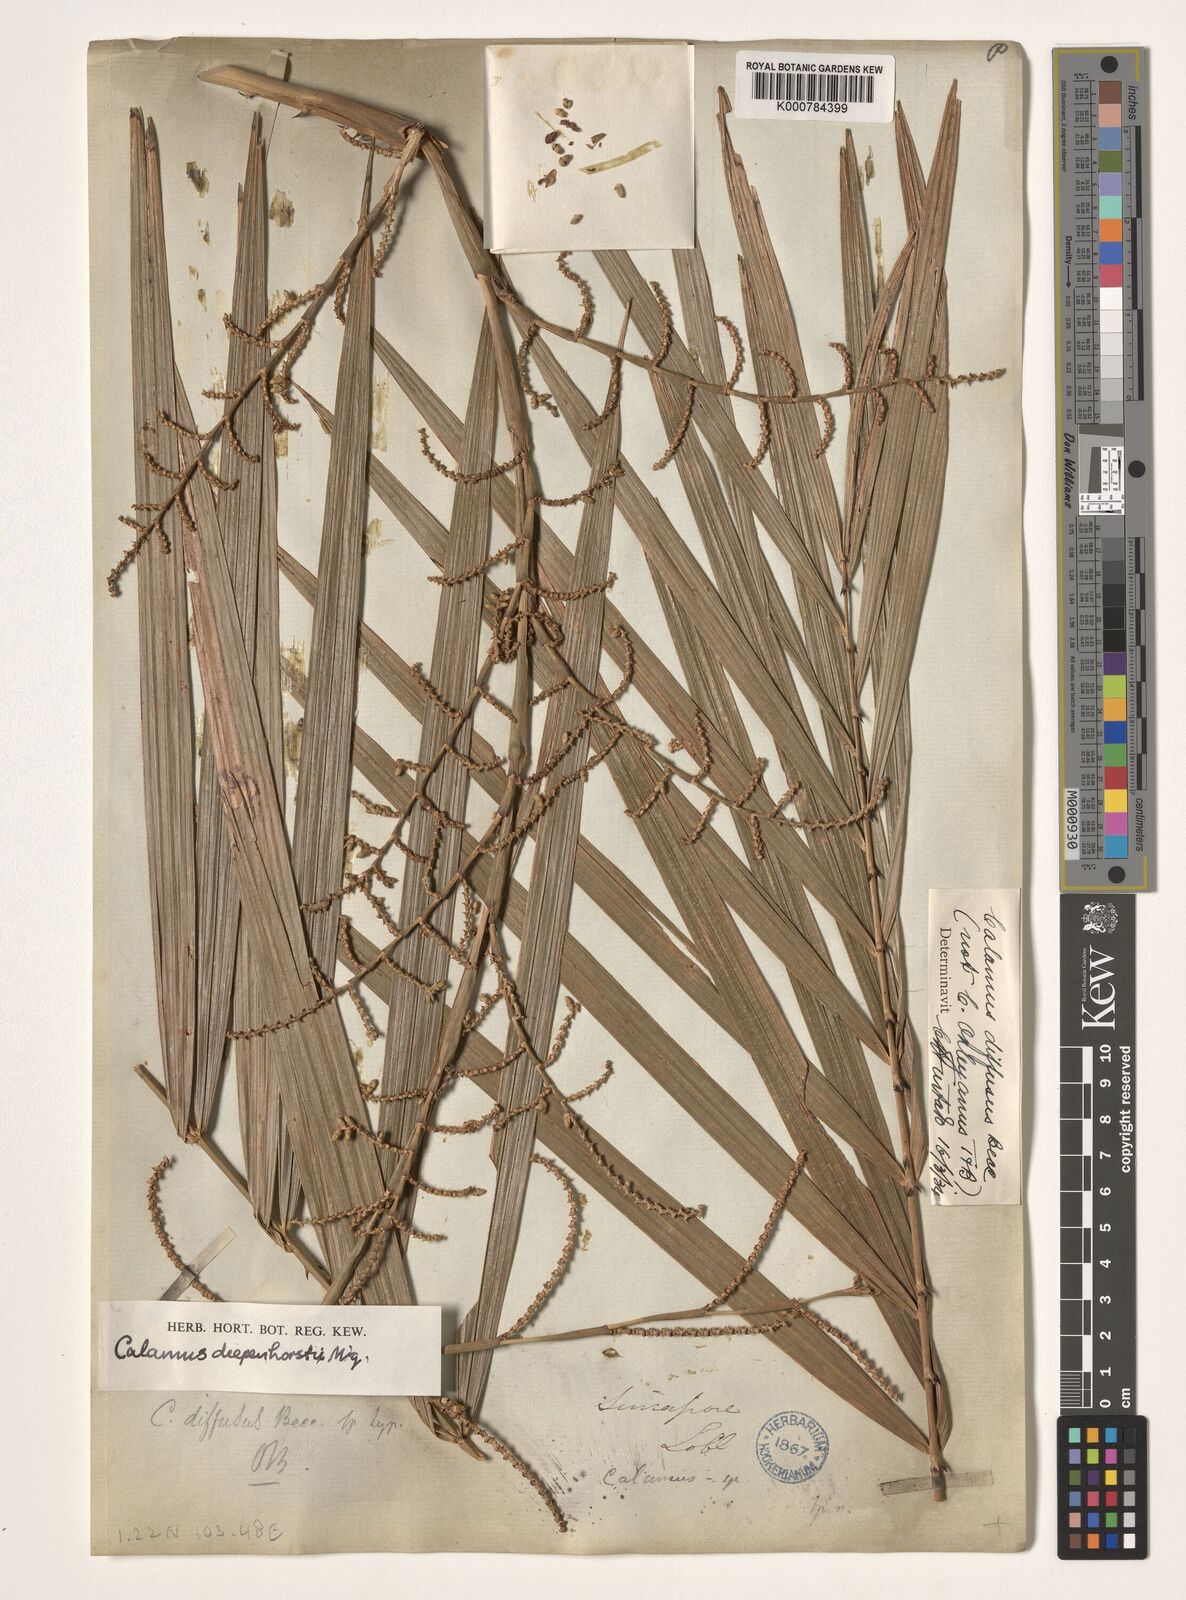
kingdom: Plantae
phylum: Tracheophyta
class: Liliopsida
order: Arecales
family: Arecaceae
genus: Calamus
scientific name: Calamus diepenhorstii
